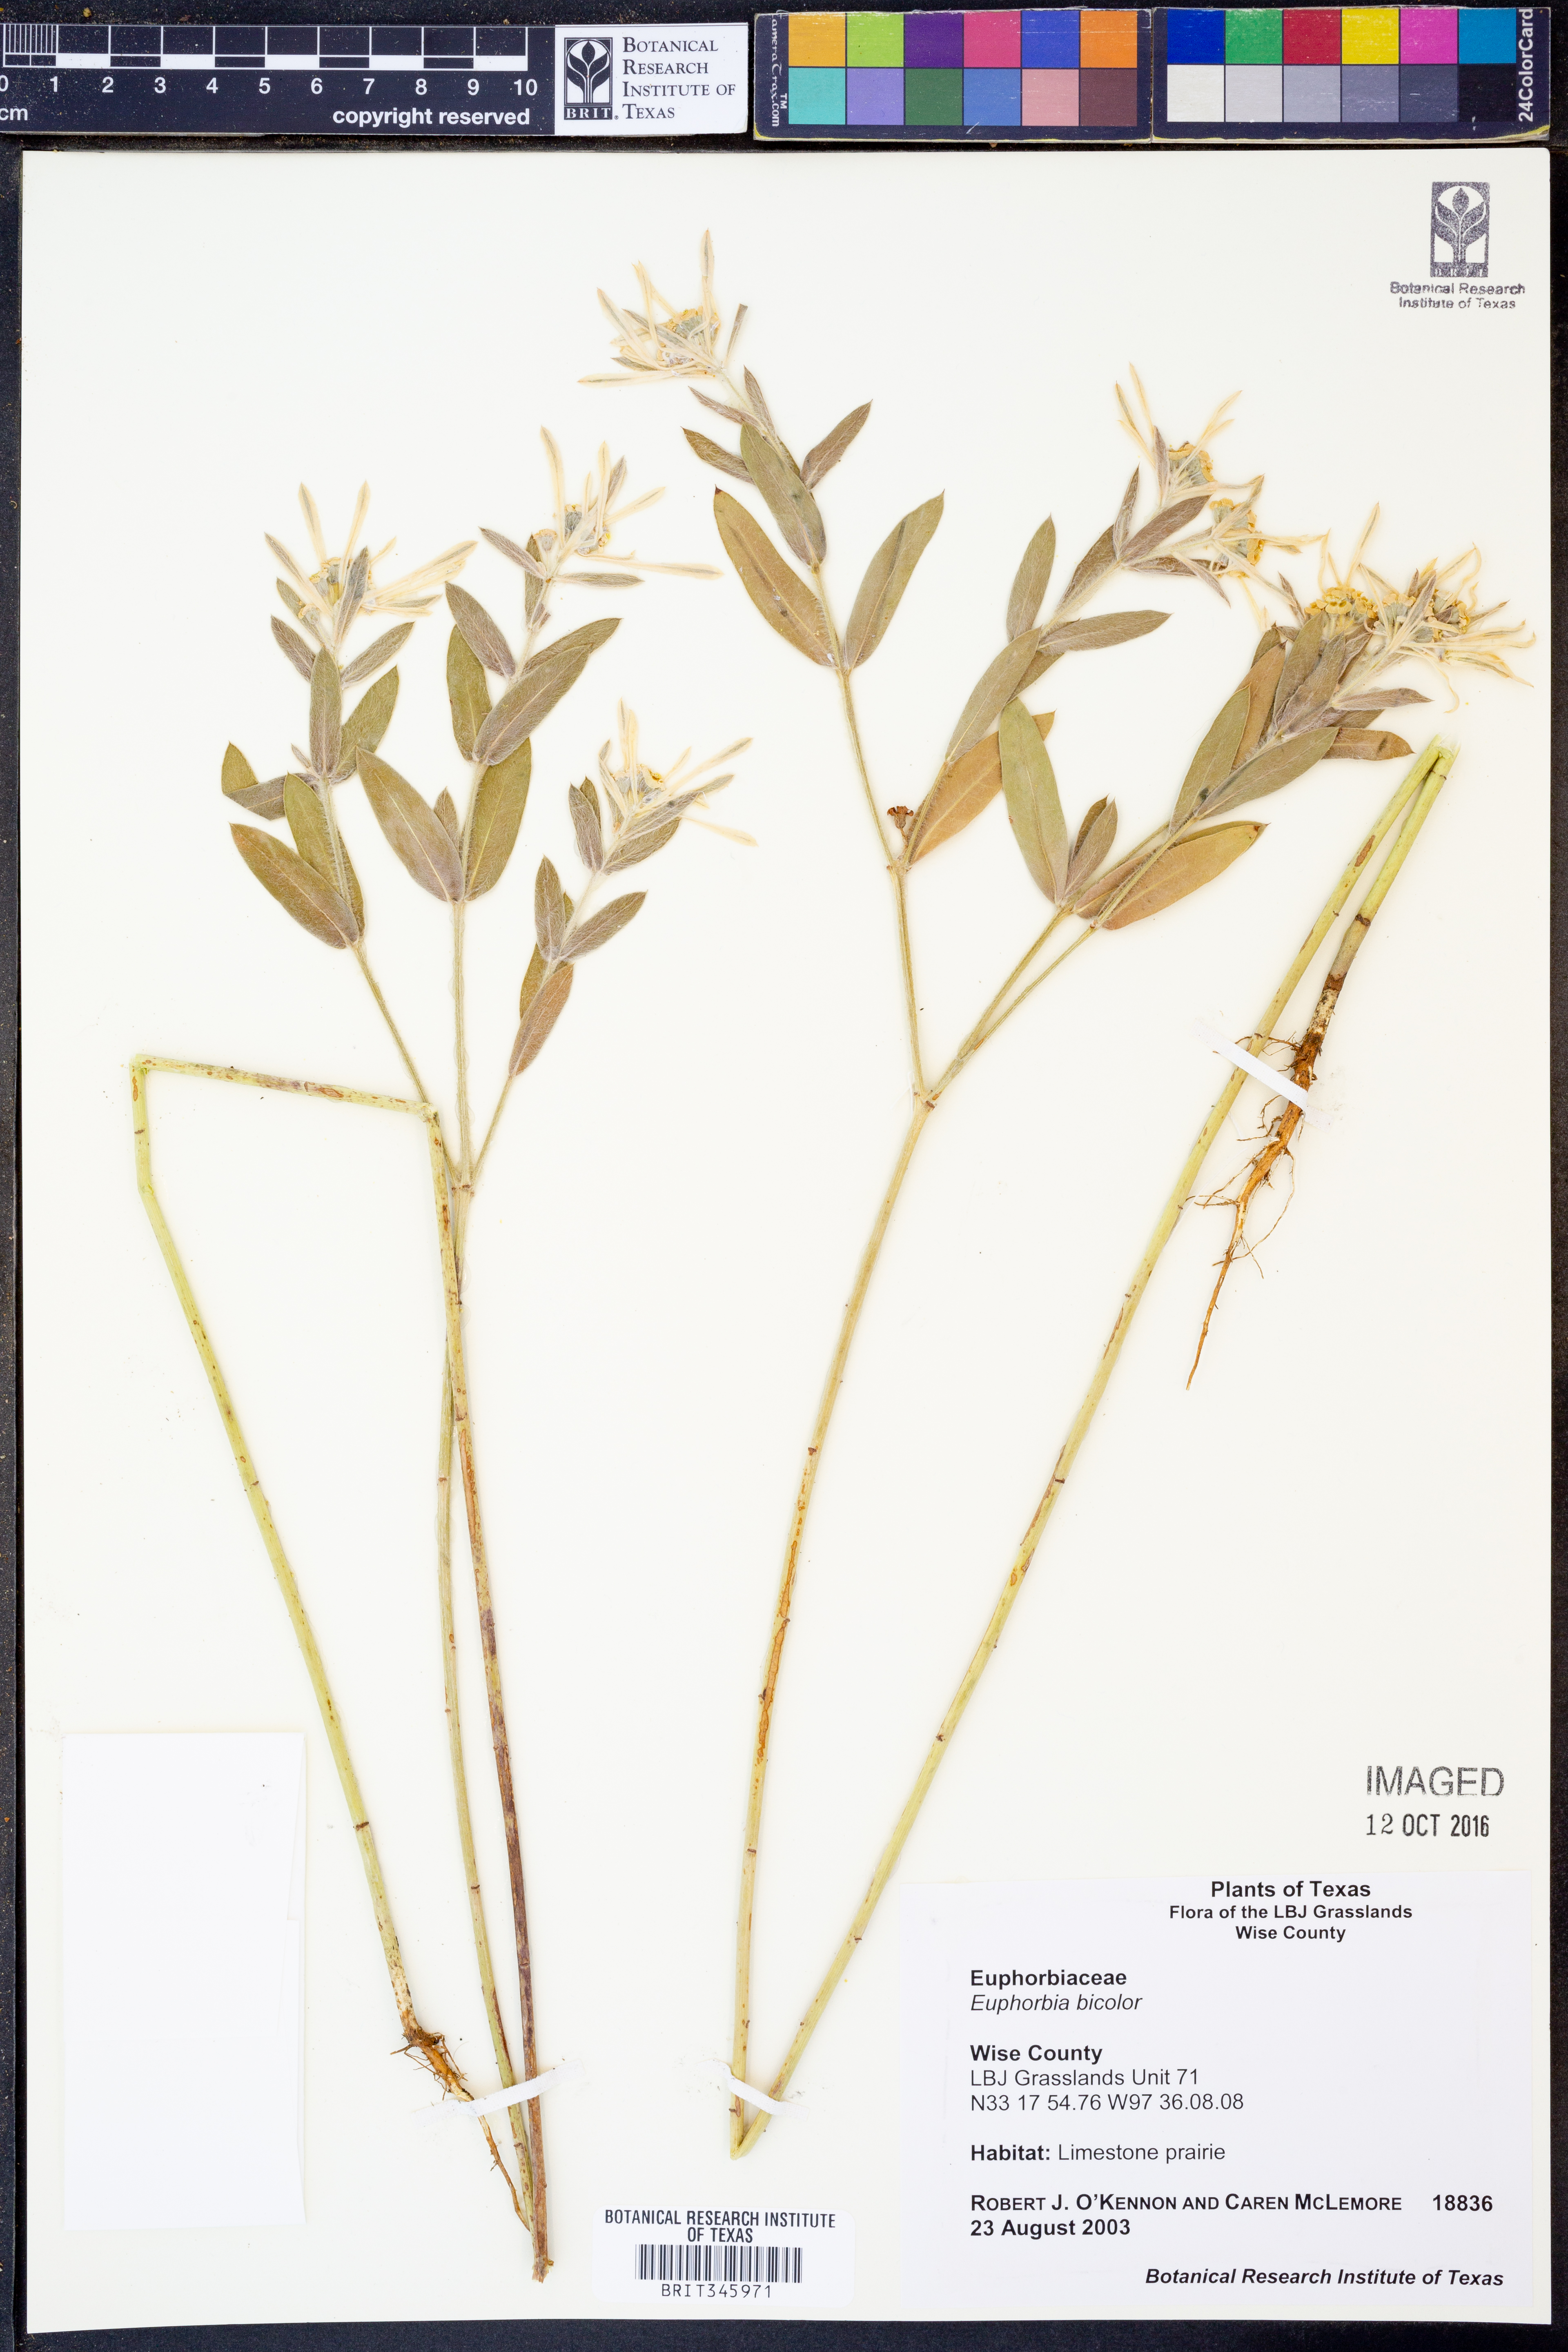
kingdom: Plantae
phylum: Tracheophyta
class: Magnoliopsida
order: Malpighiales
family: Euphorbiaceae
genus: Euphorbia
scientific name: Euphorbia bicolor
